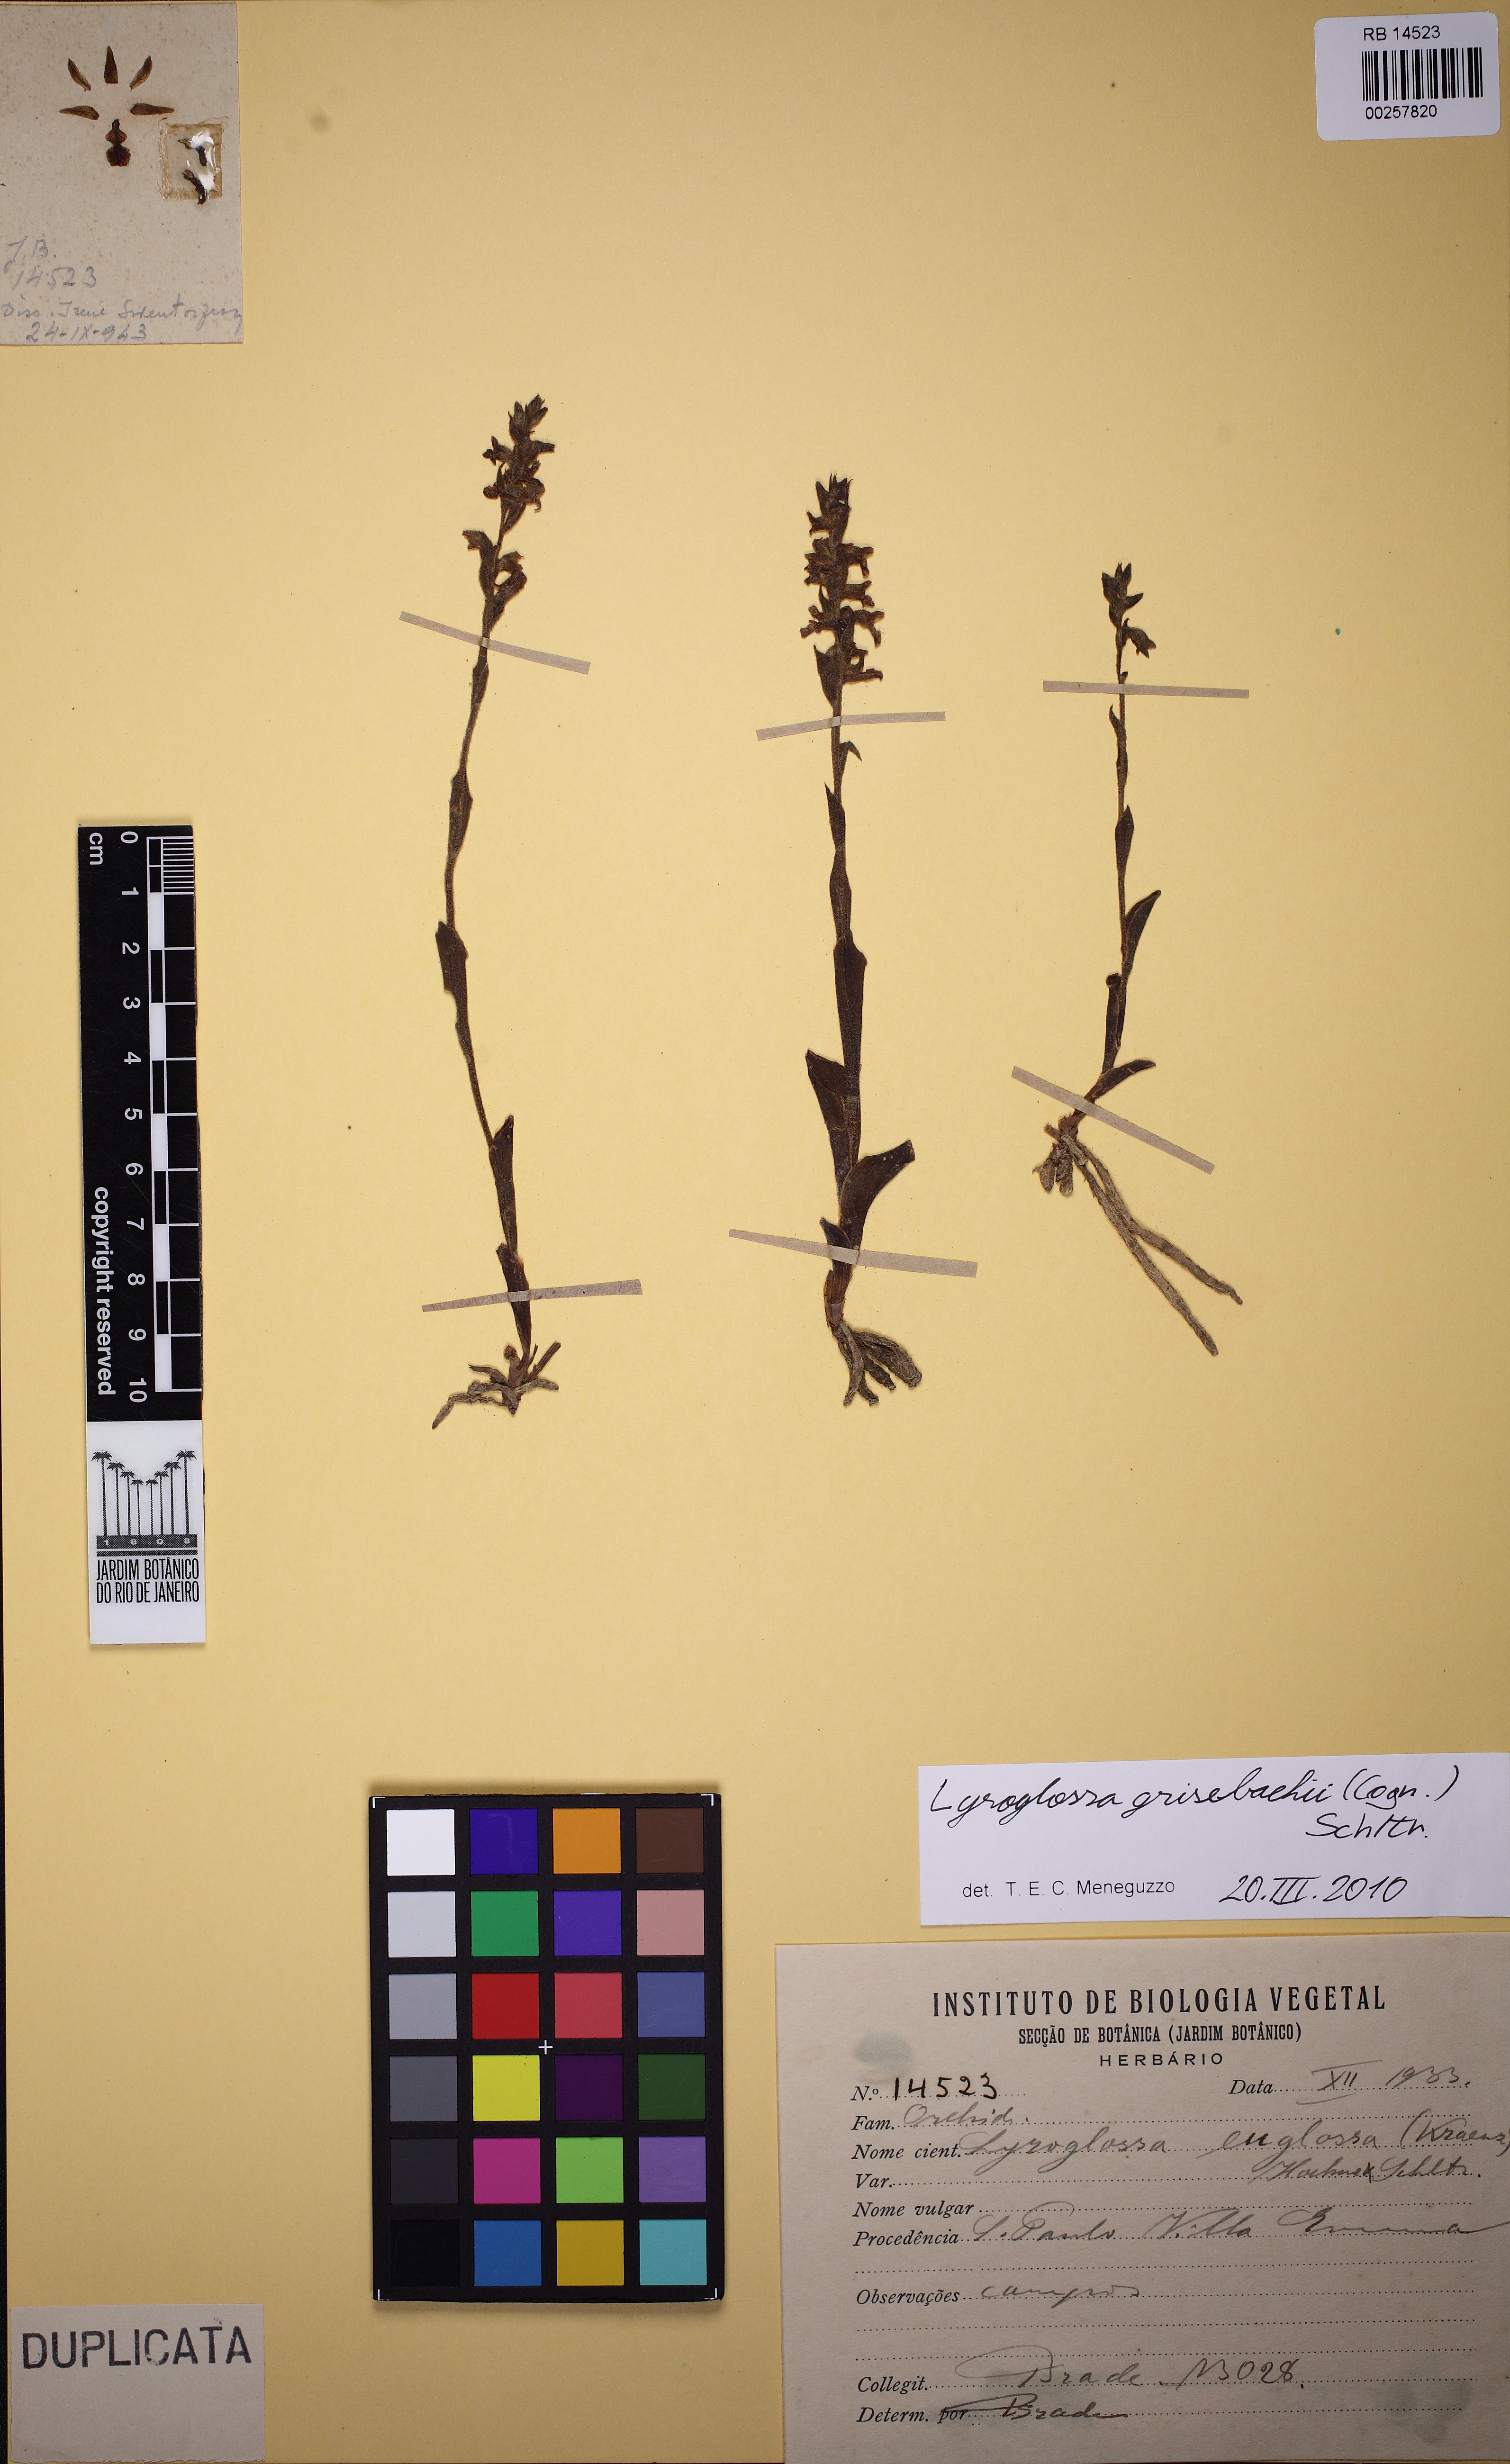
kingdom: Plantae
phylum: Tracheophyta
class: Liliopsida
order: Asparagales
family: Orchidaceae
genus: Lyroglossa
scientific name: Lyroglossa grisebachii
